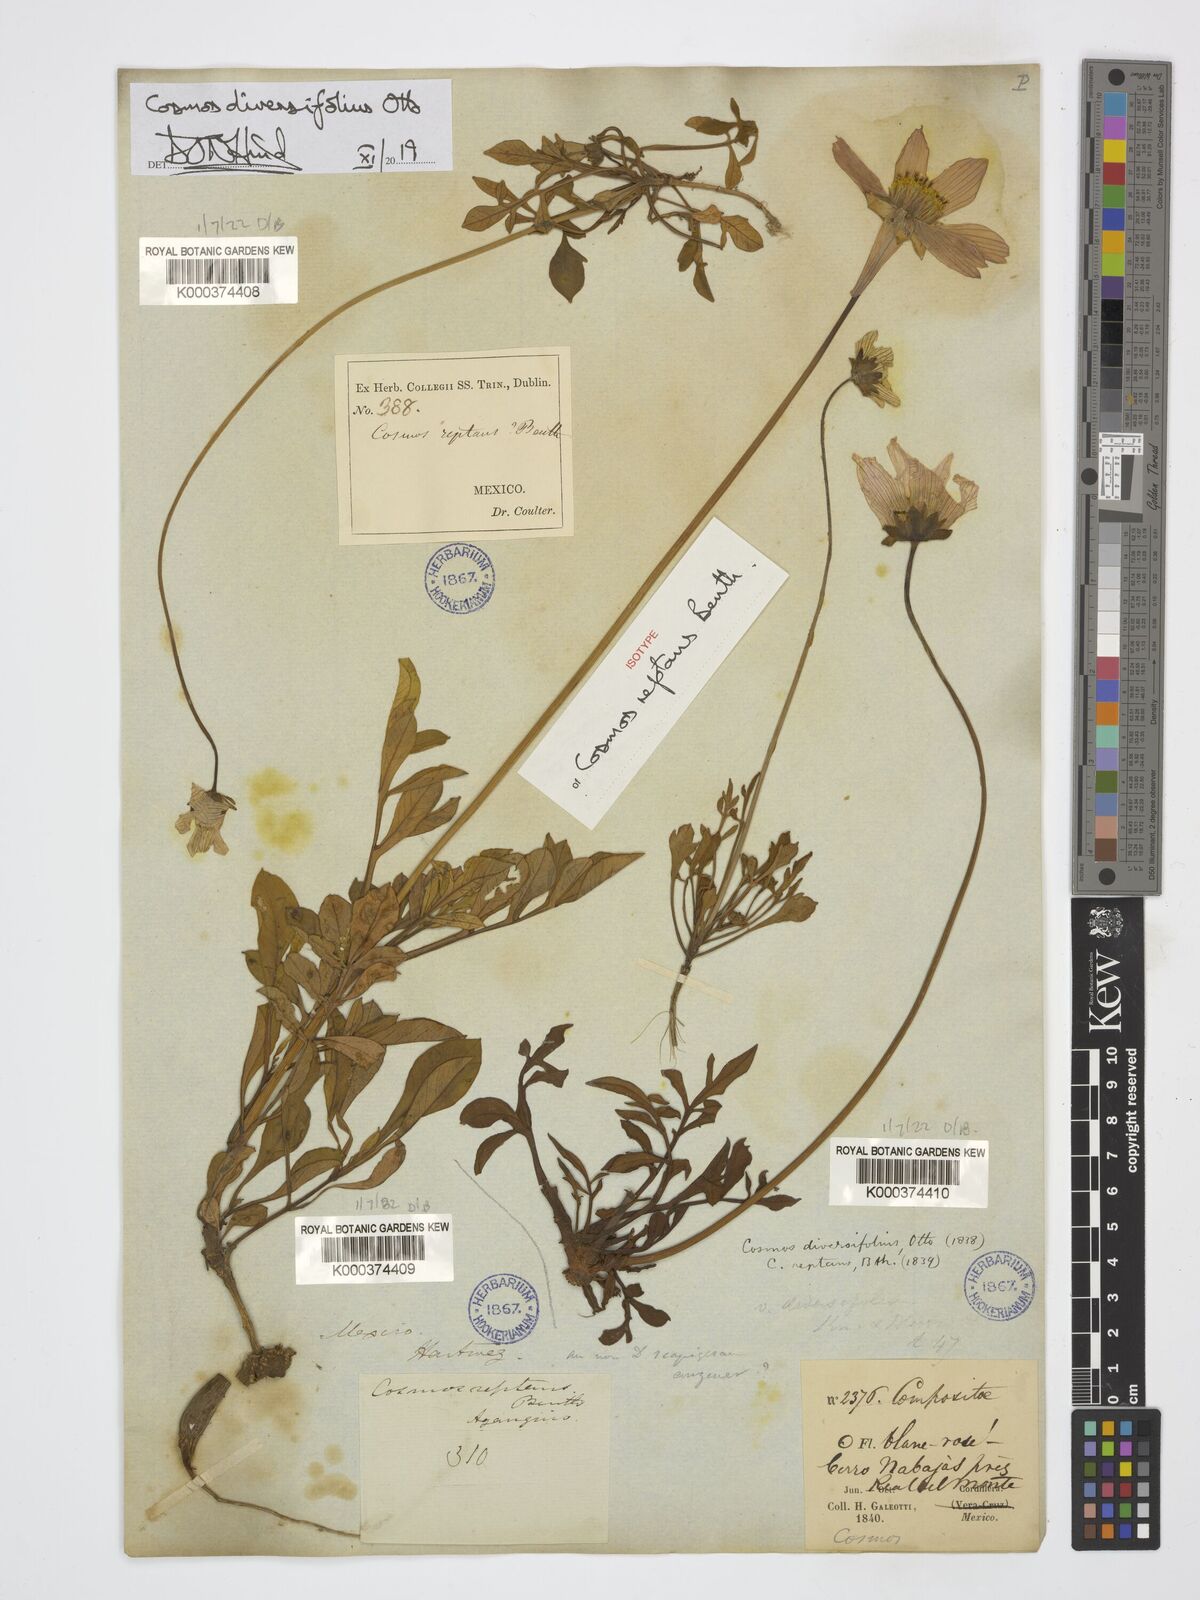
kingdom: Plantae
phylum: Tracheophyta
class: Magnoliopsida
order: Asterales
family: Asteraceae
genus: Cosmos
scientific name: Cosmos diversifolius
